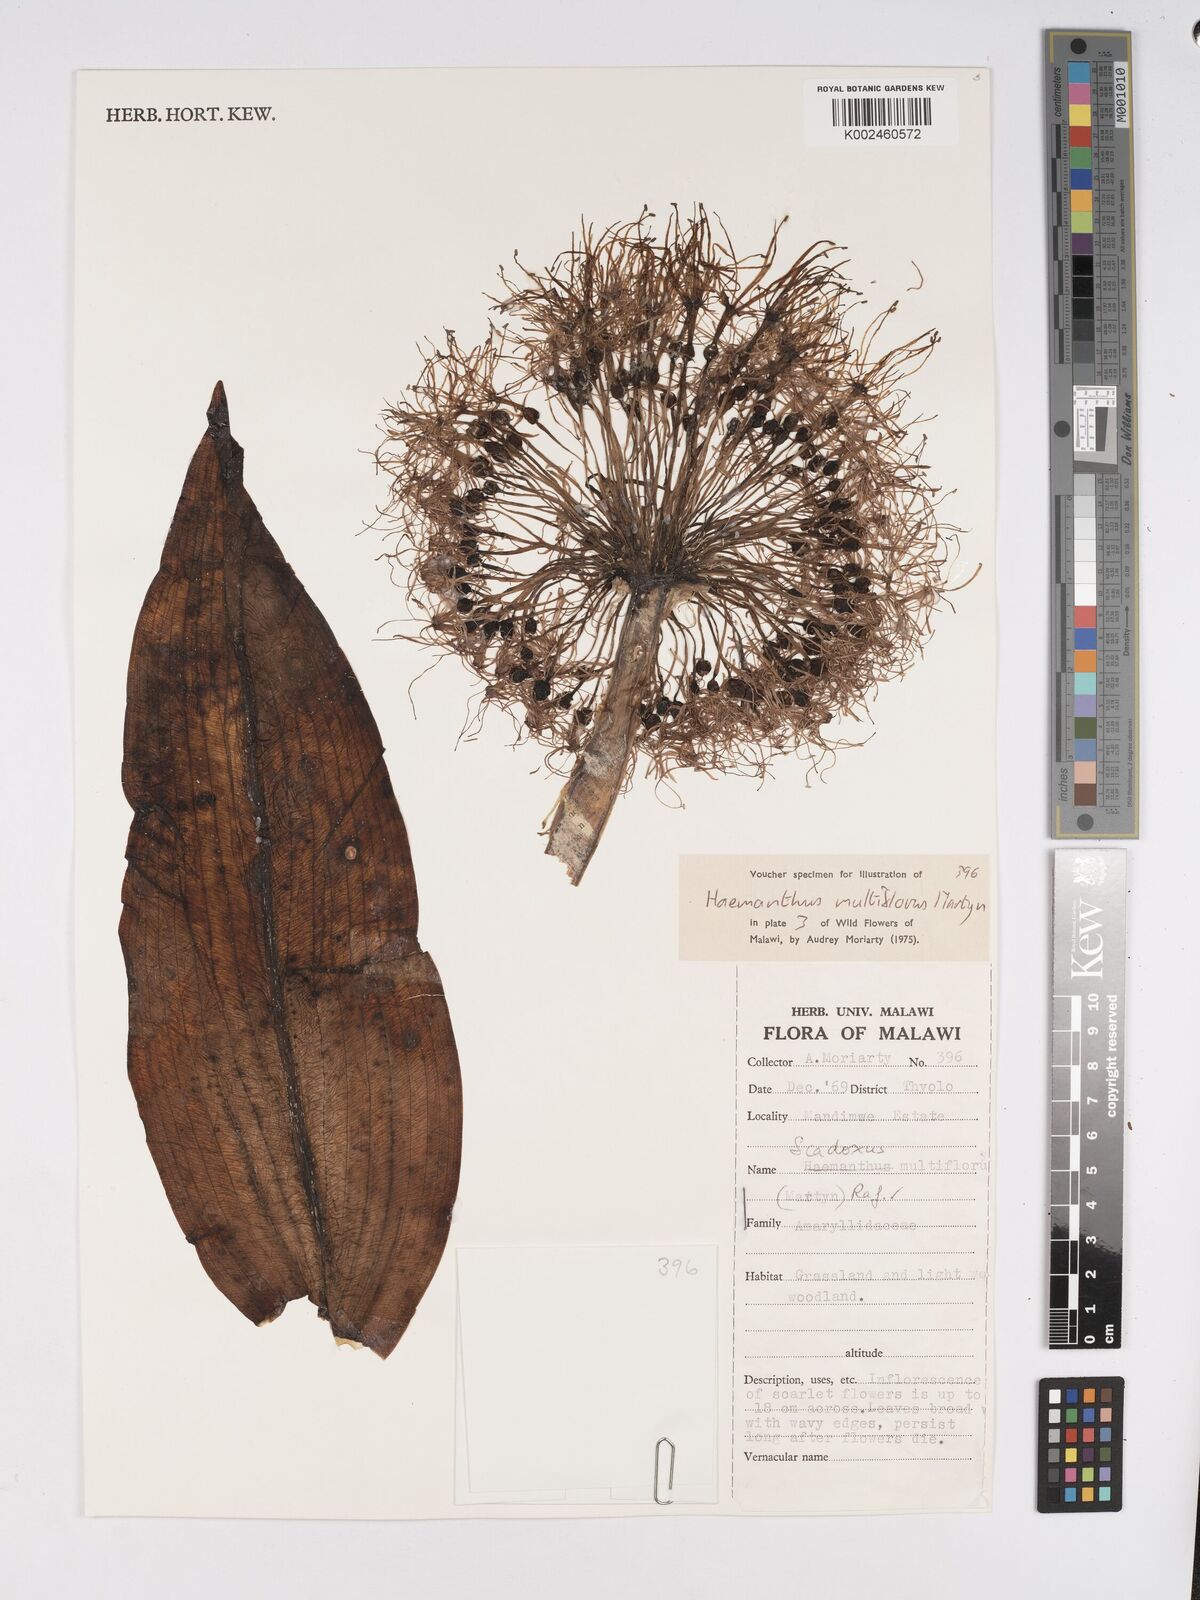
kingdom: Plantae
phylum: Tracheophyta
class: Liliopsida
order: Asparagales
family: Amaryllidaceae
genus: Scadoxus
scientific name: Scadoxus multiflorus
